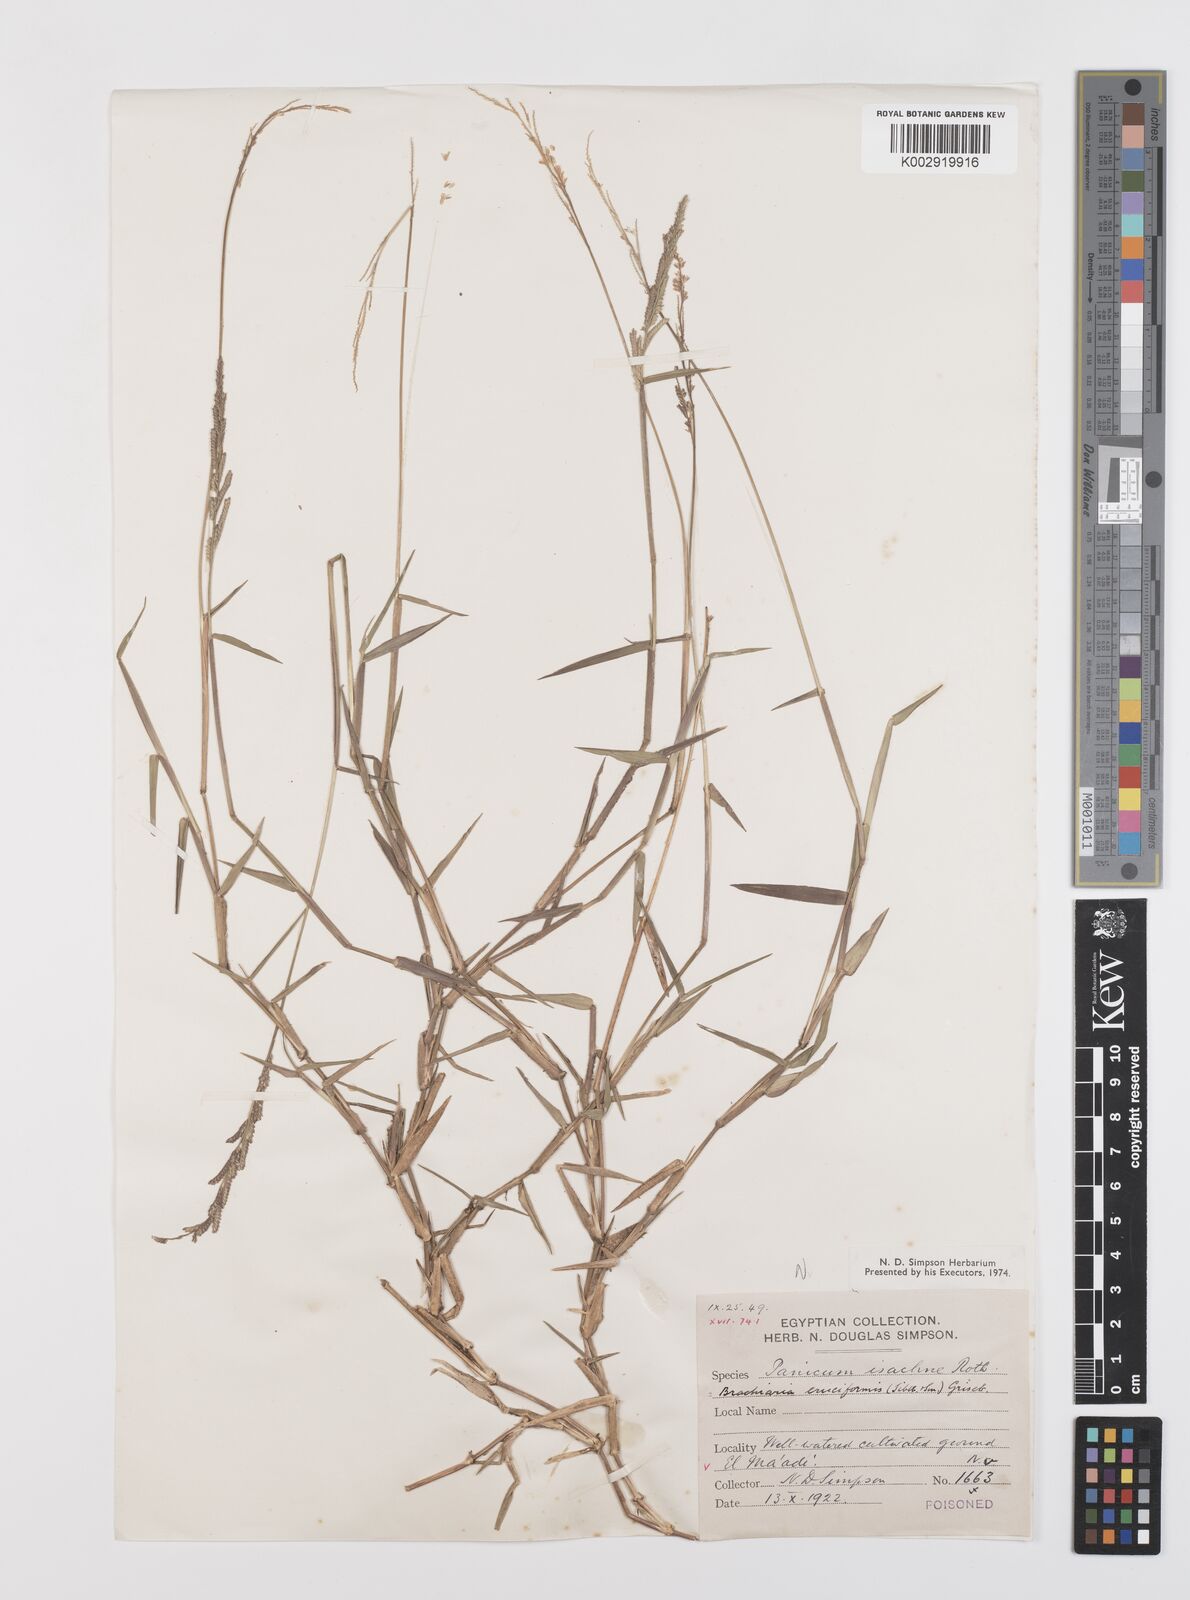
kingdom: Plantae
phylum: Tracheophyta
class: Liliopsida
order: Poales
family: Poaceae
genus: Moorochloa
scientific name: Moorochloa eruciformis
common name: Sweet signalgrass
